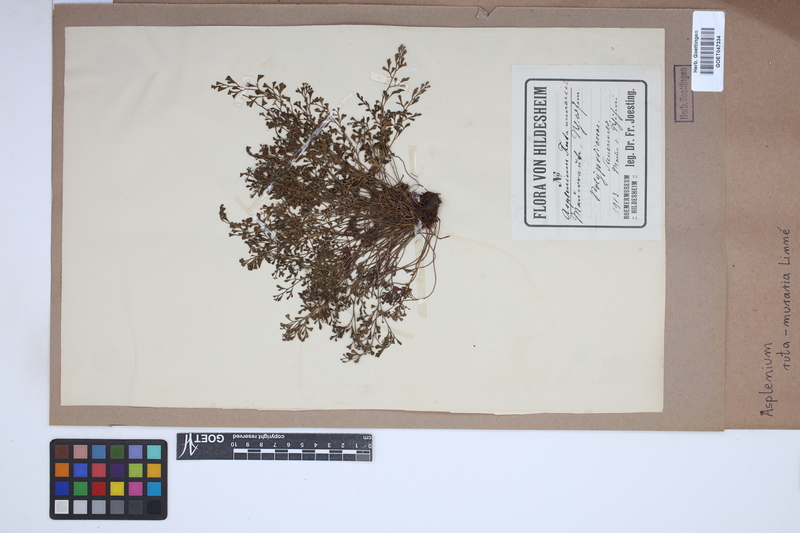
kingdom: Plantae
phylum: Tracheophyta
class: Polypodiopsida
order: Polypodiales
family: Aspleniaceae
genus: Asplenium
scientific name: Asplenium ruta-muraria
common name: Wall-rue
